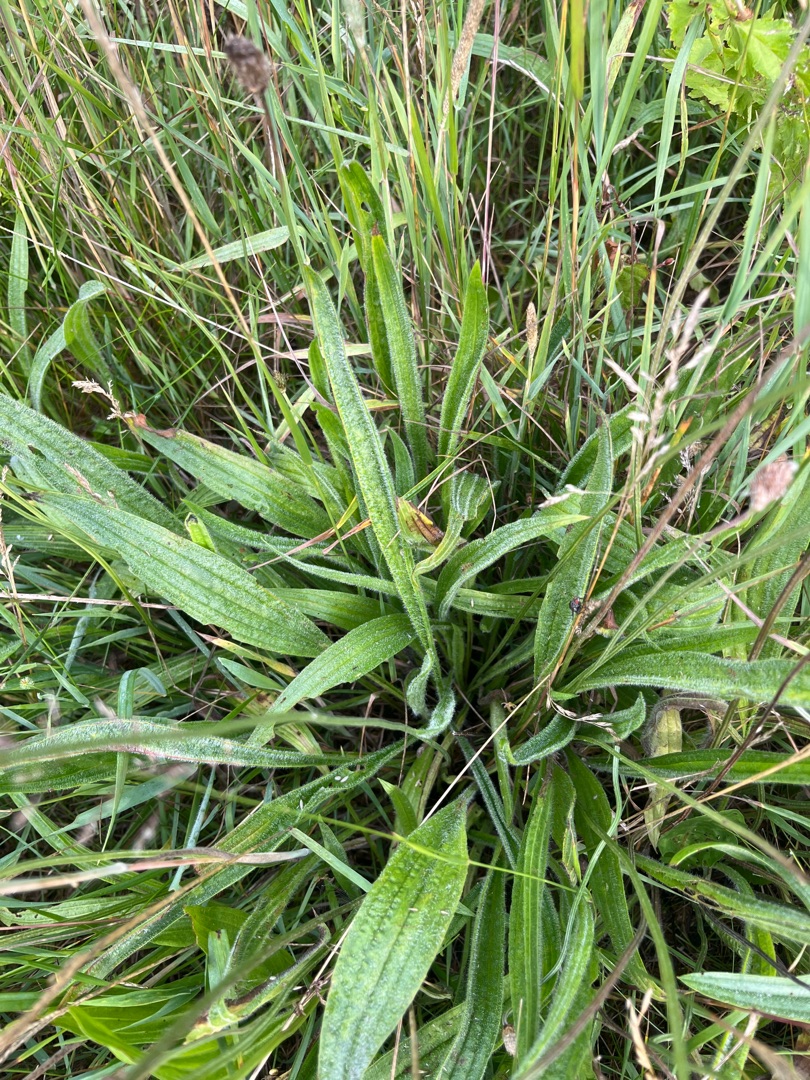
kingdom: Plantae
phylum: Tracheophyta
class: Magnoliopsida
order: Lamiales
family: Plantaginaceae
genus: Plantago
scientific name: Plantago lanceolata
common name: Lancet-vejbred
